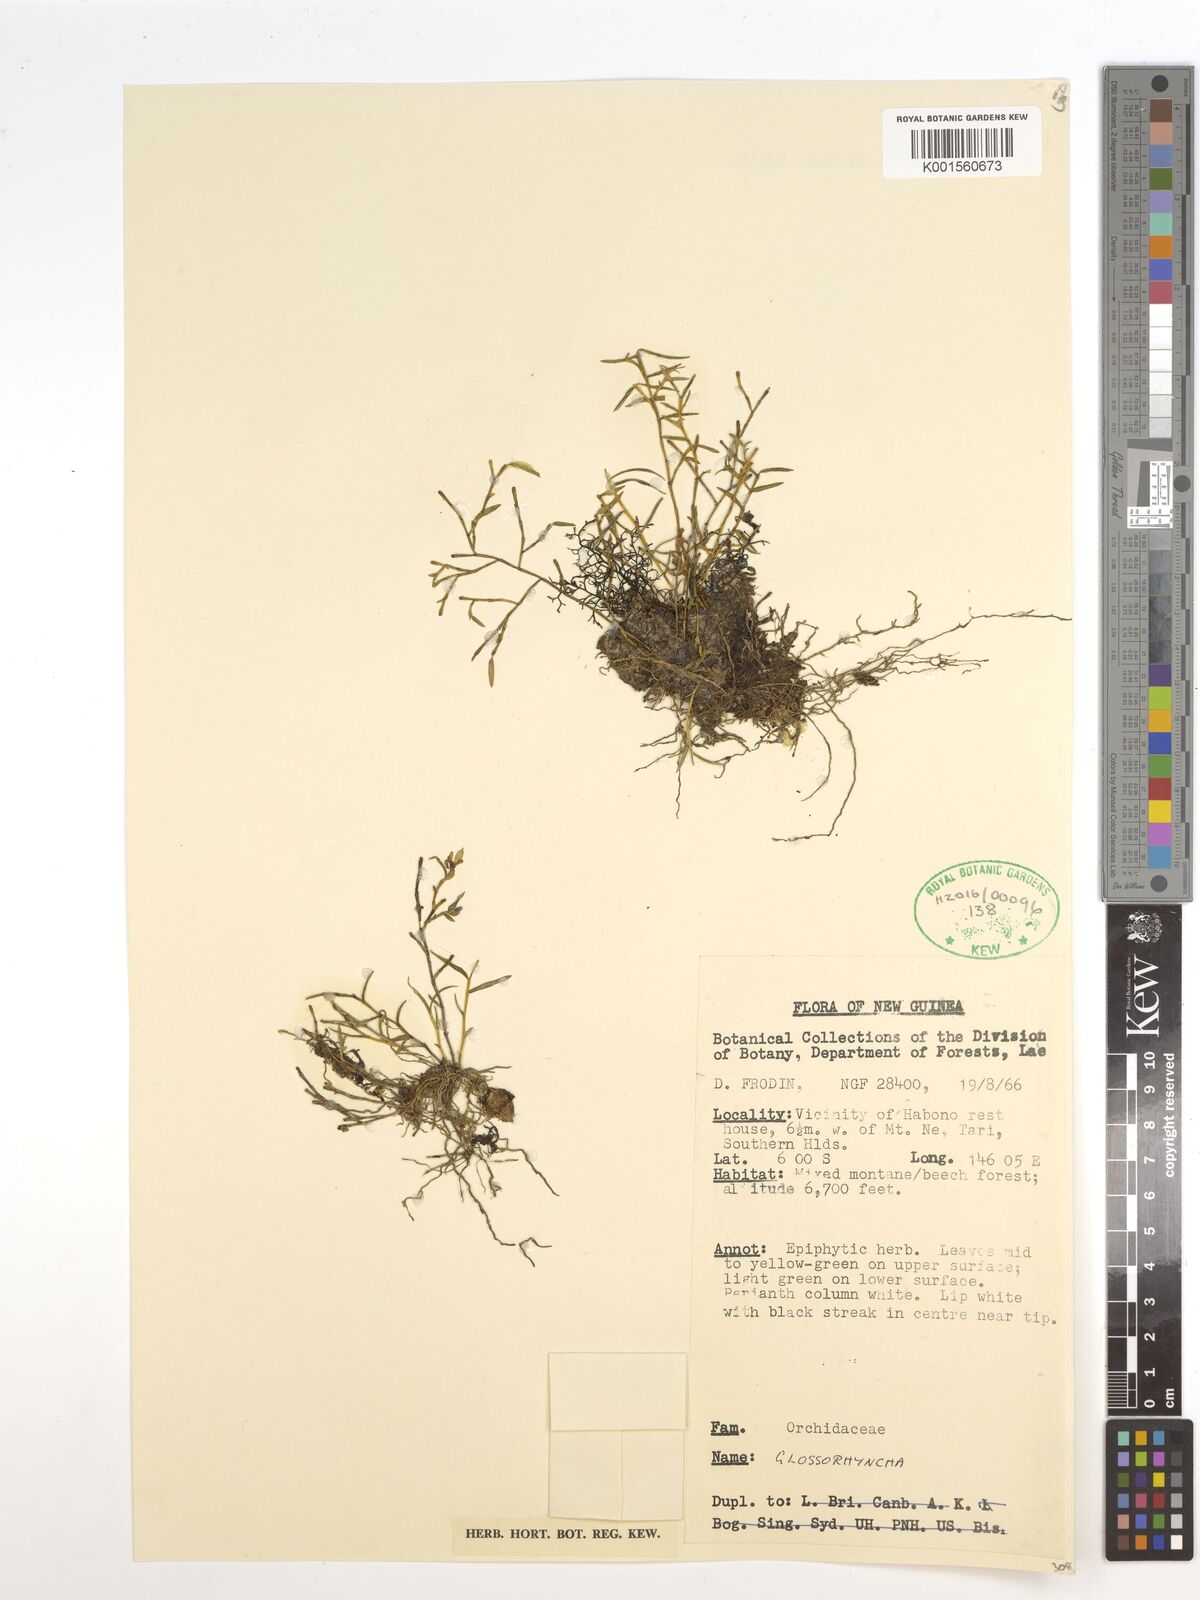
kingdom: Plantae
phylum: Tracheophyta
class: Liliopsida
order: Asparagales
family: Orchidaceae
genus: Glomera
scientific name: Glomera
